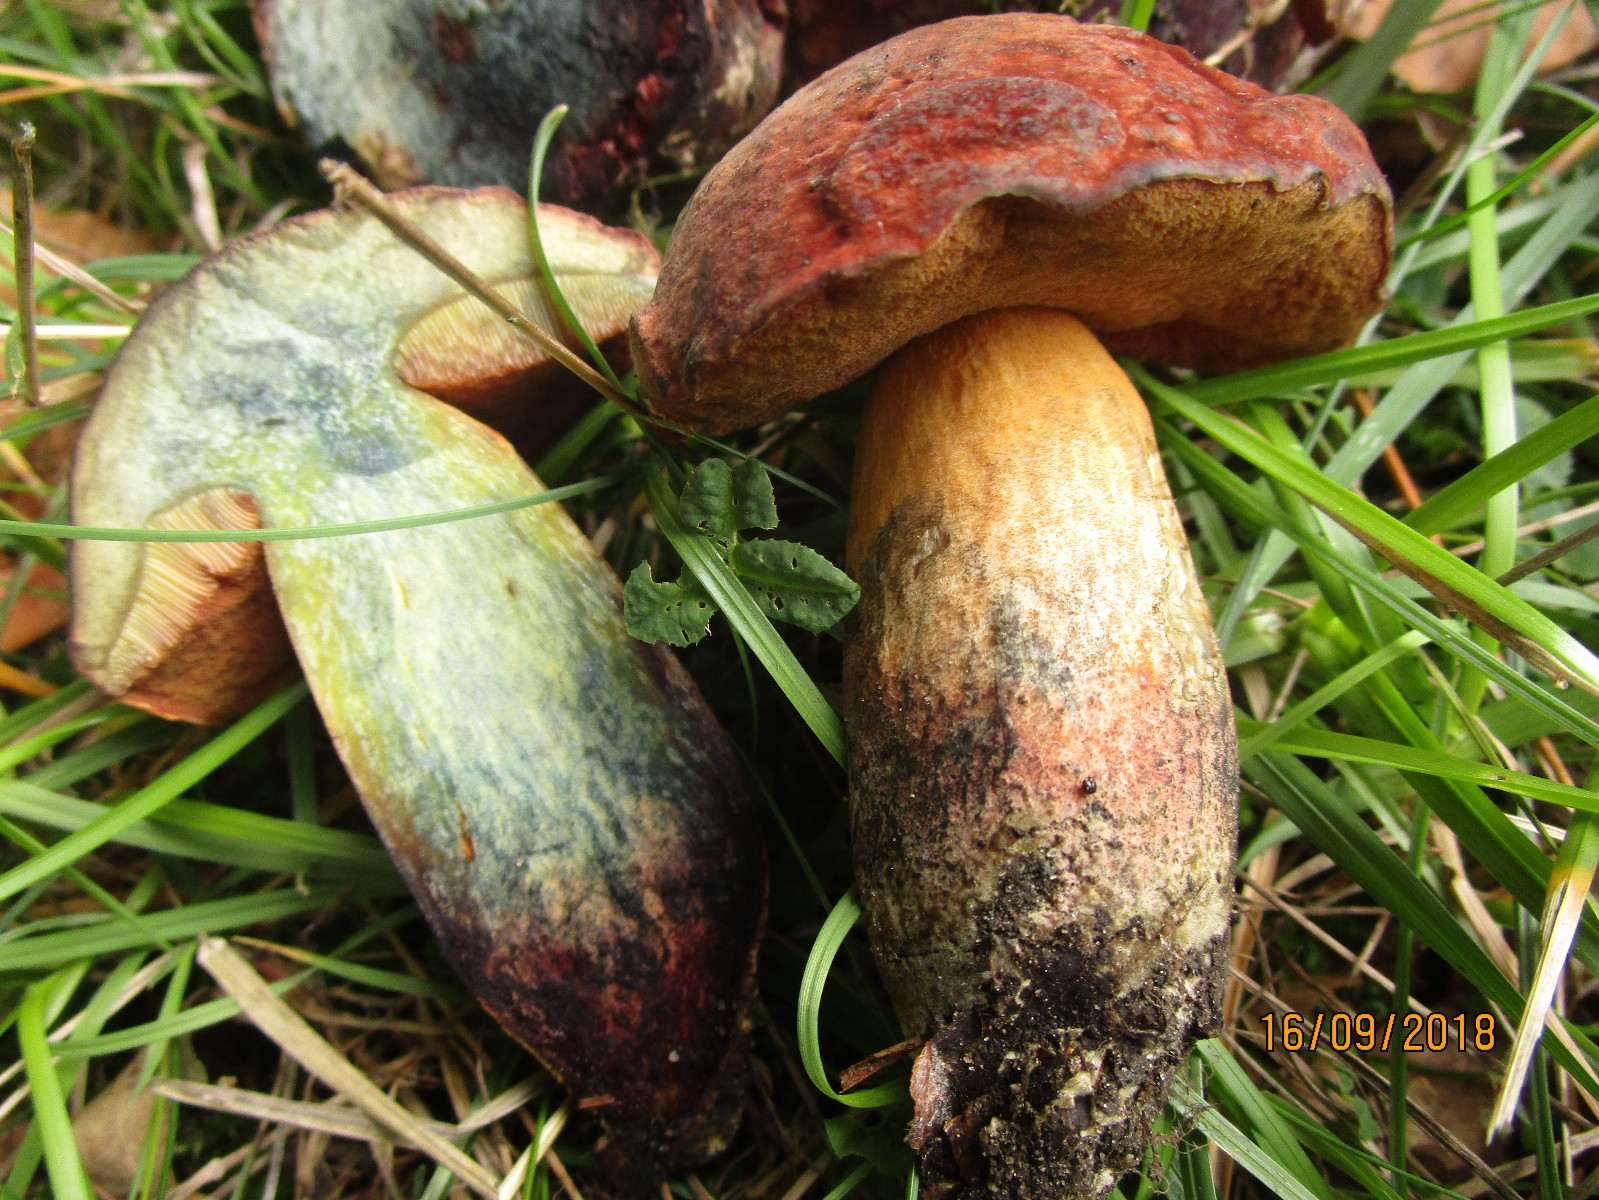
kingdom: Fungi
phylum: Basidiomycota
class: Agaricomycetes
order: Boletales
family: Boletaceae
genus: Suillellus
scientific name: Suillellus queletii
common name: glatstokket indigorørhat
